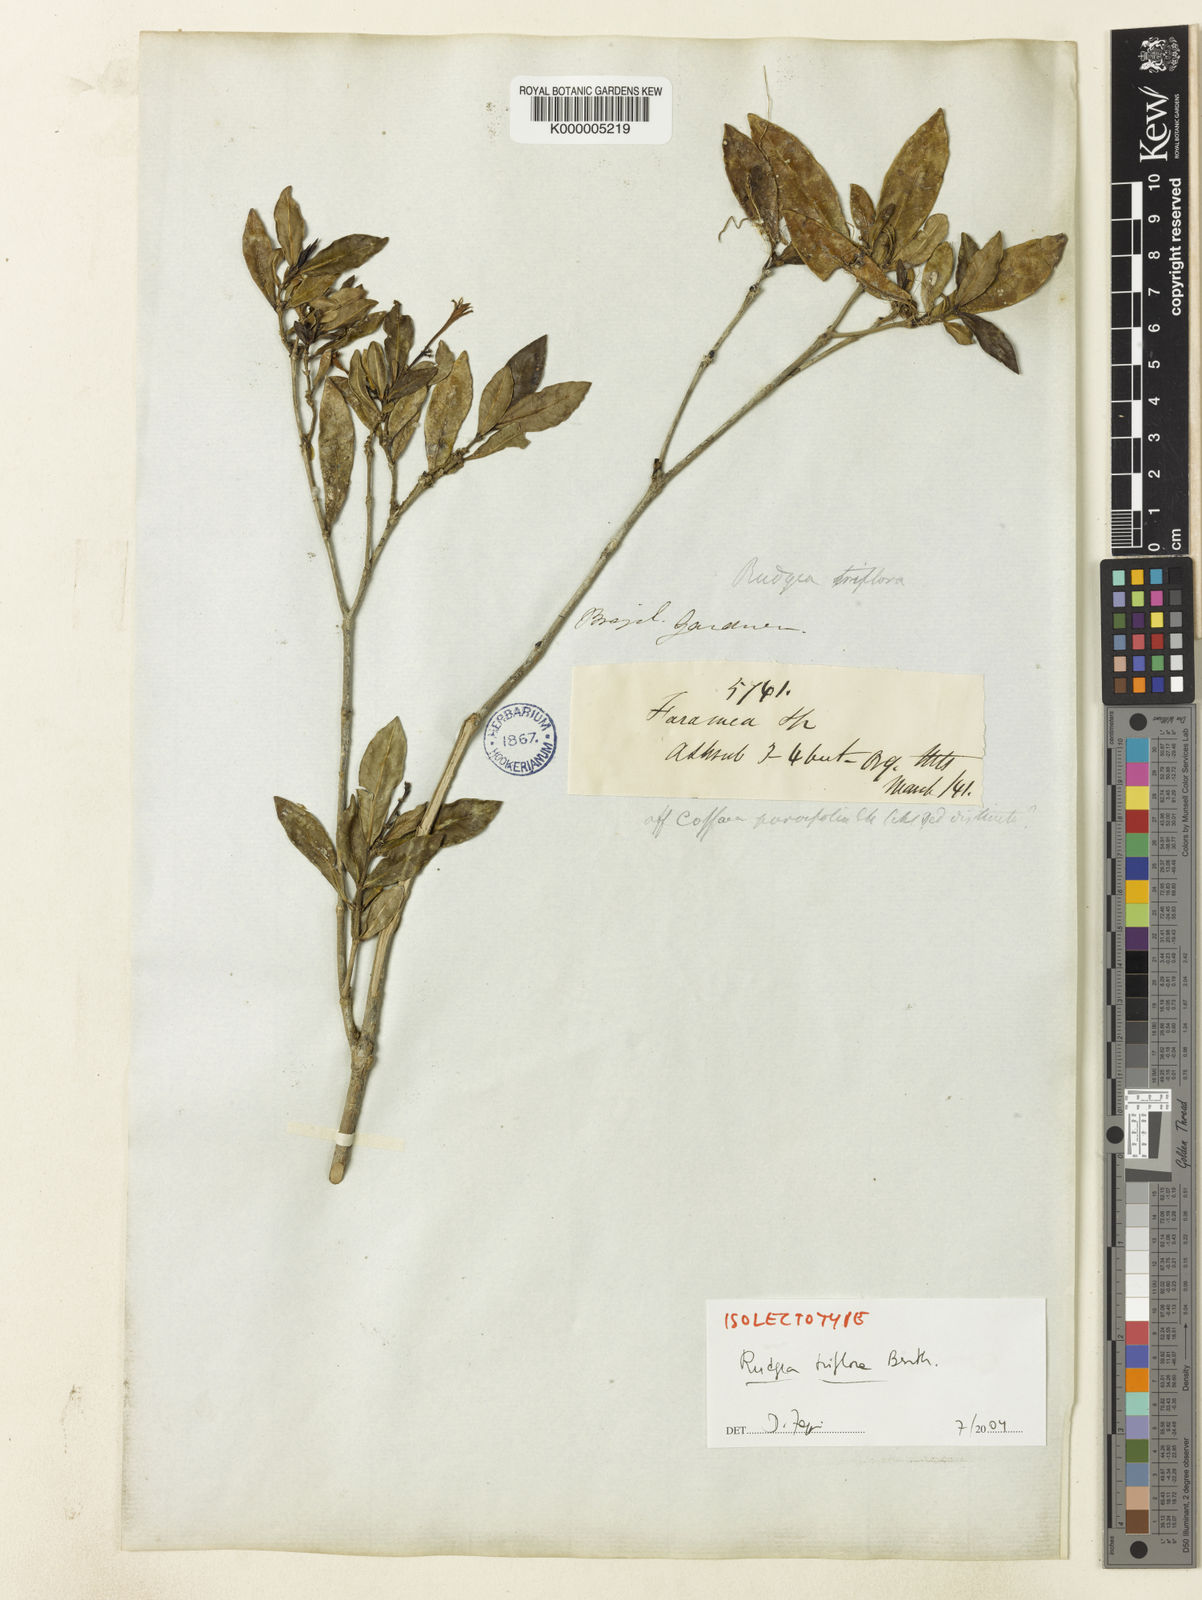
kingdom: Plantae
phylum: Tracheophyta
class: Magnoliopsida
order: Gentianales
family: Rubiaceae
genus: Rudgea
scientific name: Rudgea triflora
